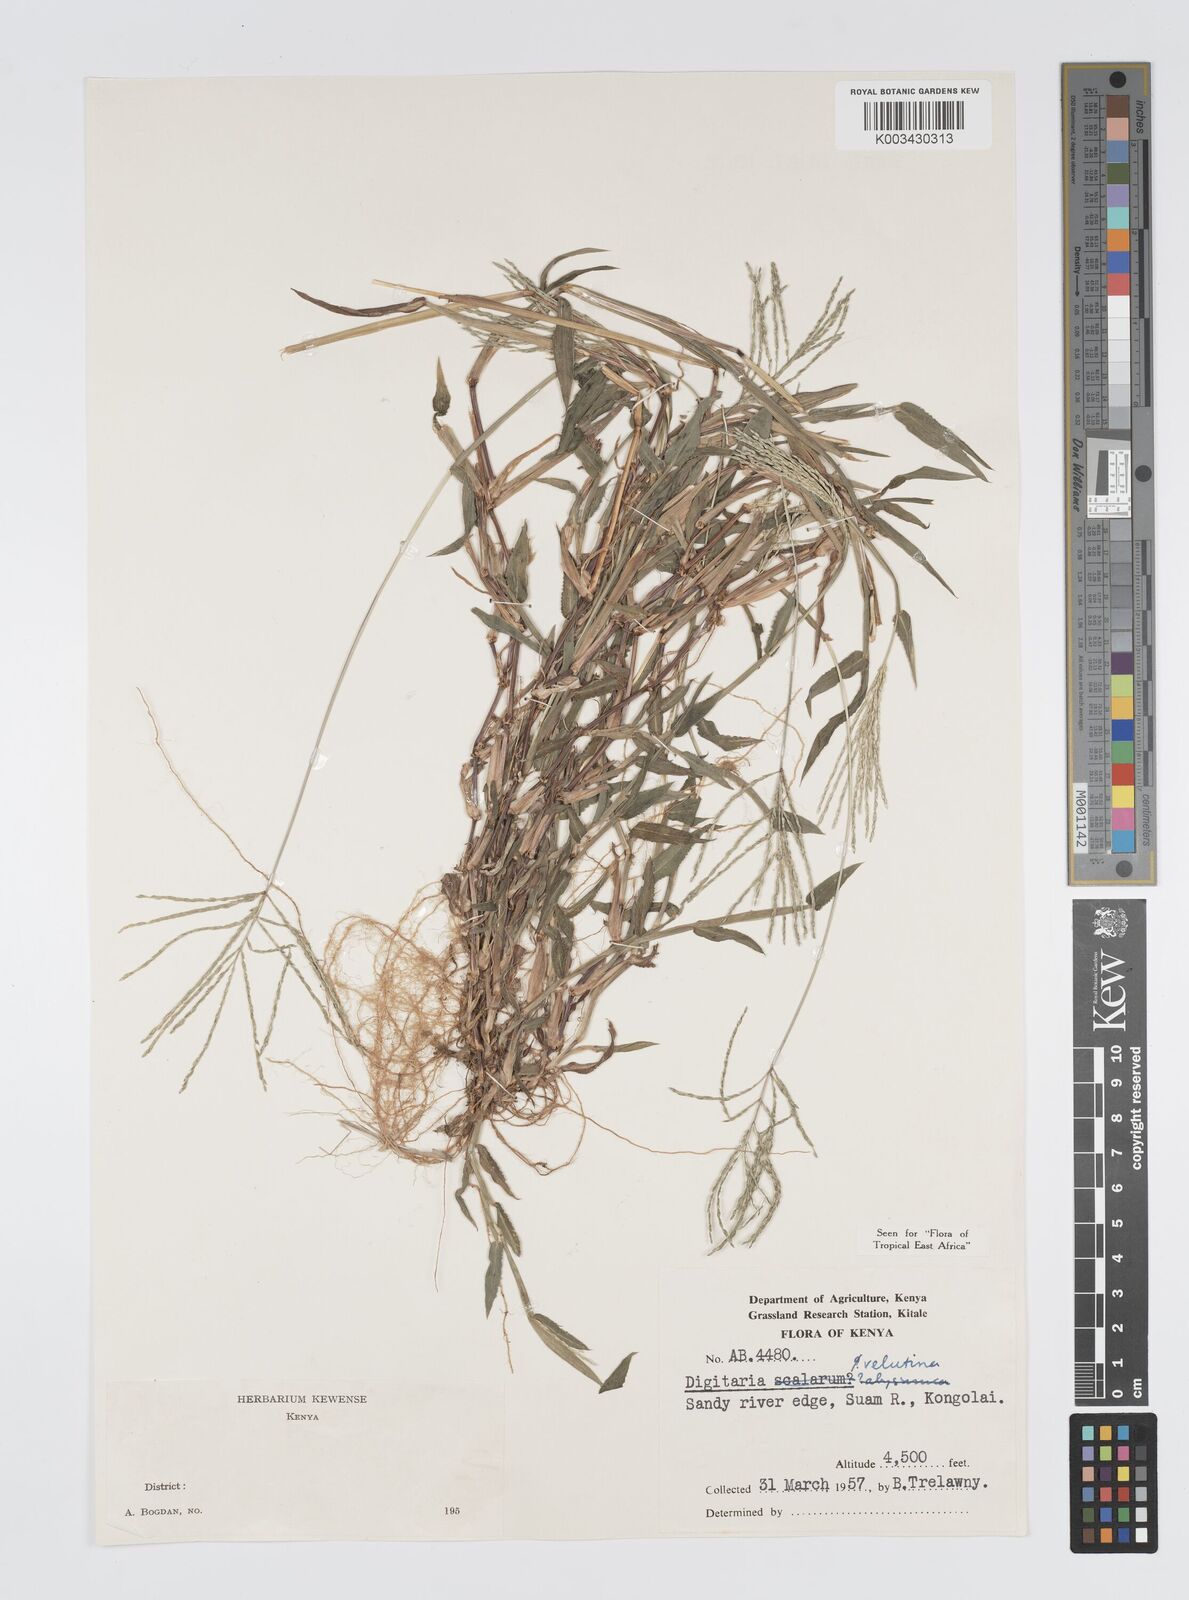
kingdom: Plantae
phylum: Tracheophyta
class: Liliopsida
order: Poales
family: Poaceae
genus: Digitaria
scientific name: Digitaria velutina
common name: Long-plume finger grass
